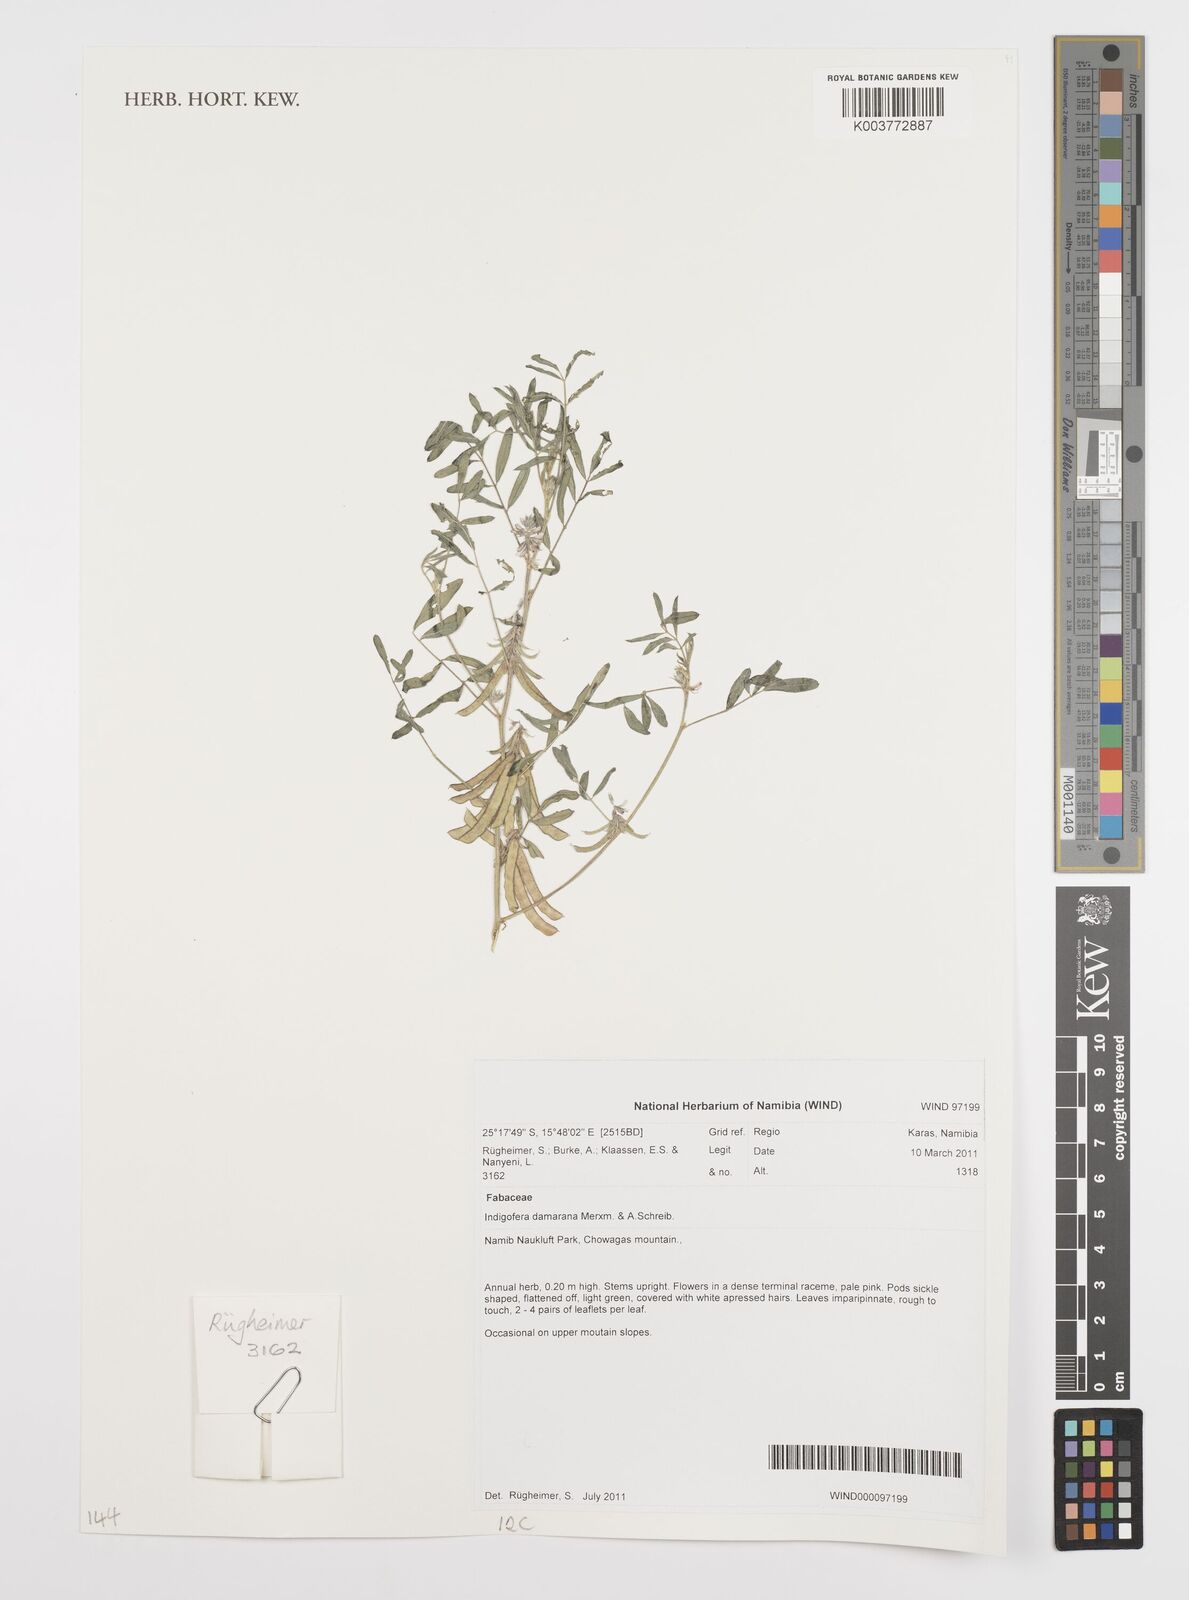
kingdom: Plantae
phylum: Tracheophyta
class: Magnoliopsida
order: Fabales
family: Fabaceae
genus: Indigofera
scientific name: Indigofera damarana
